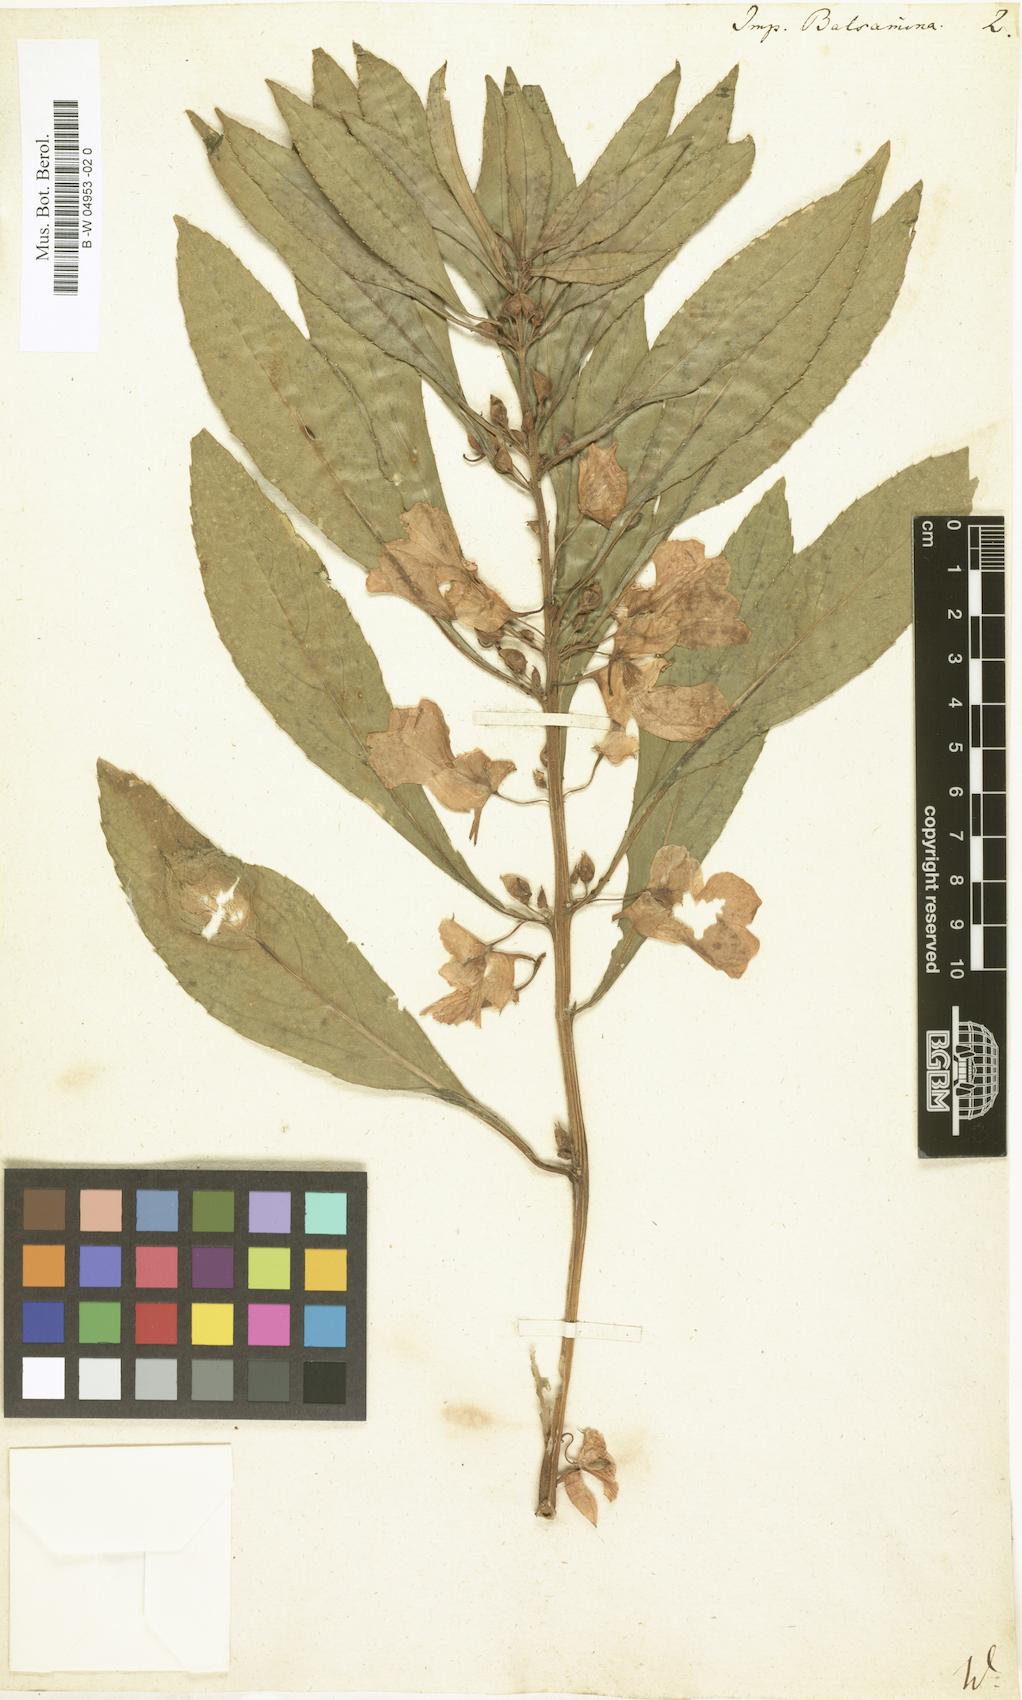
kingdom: Plantae
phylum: Tracheophyta
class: Magnoliopsida
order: Ericales
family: Balsaminaceae
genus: Impatiens
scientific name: Impatiens balsamina
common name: Balsam
